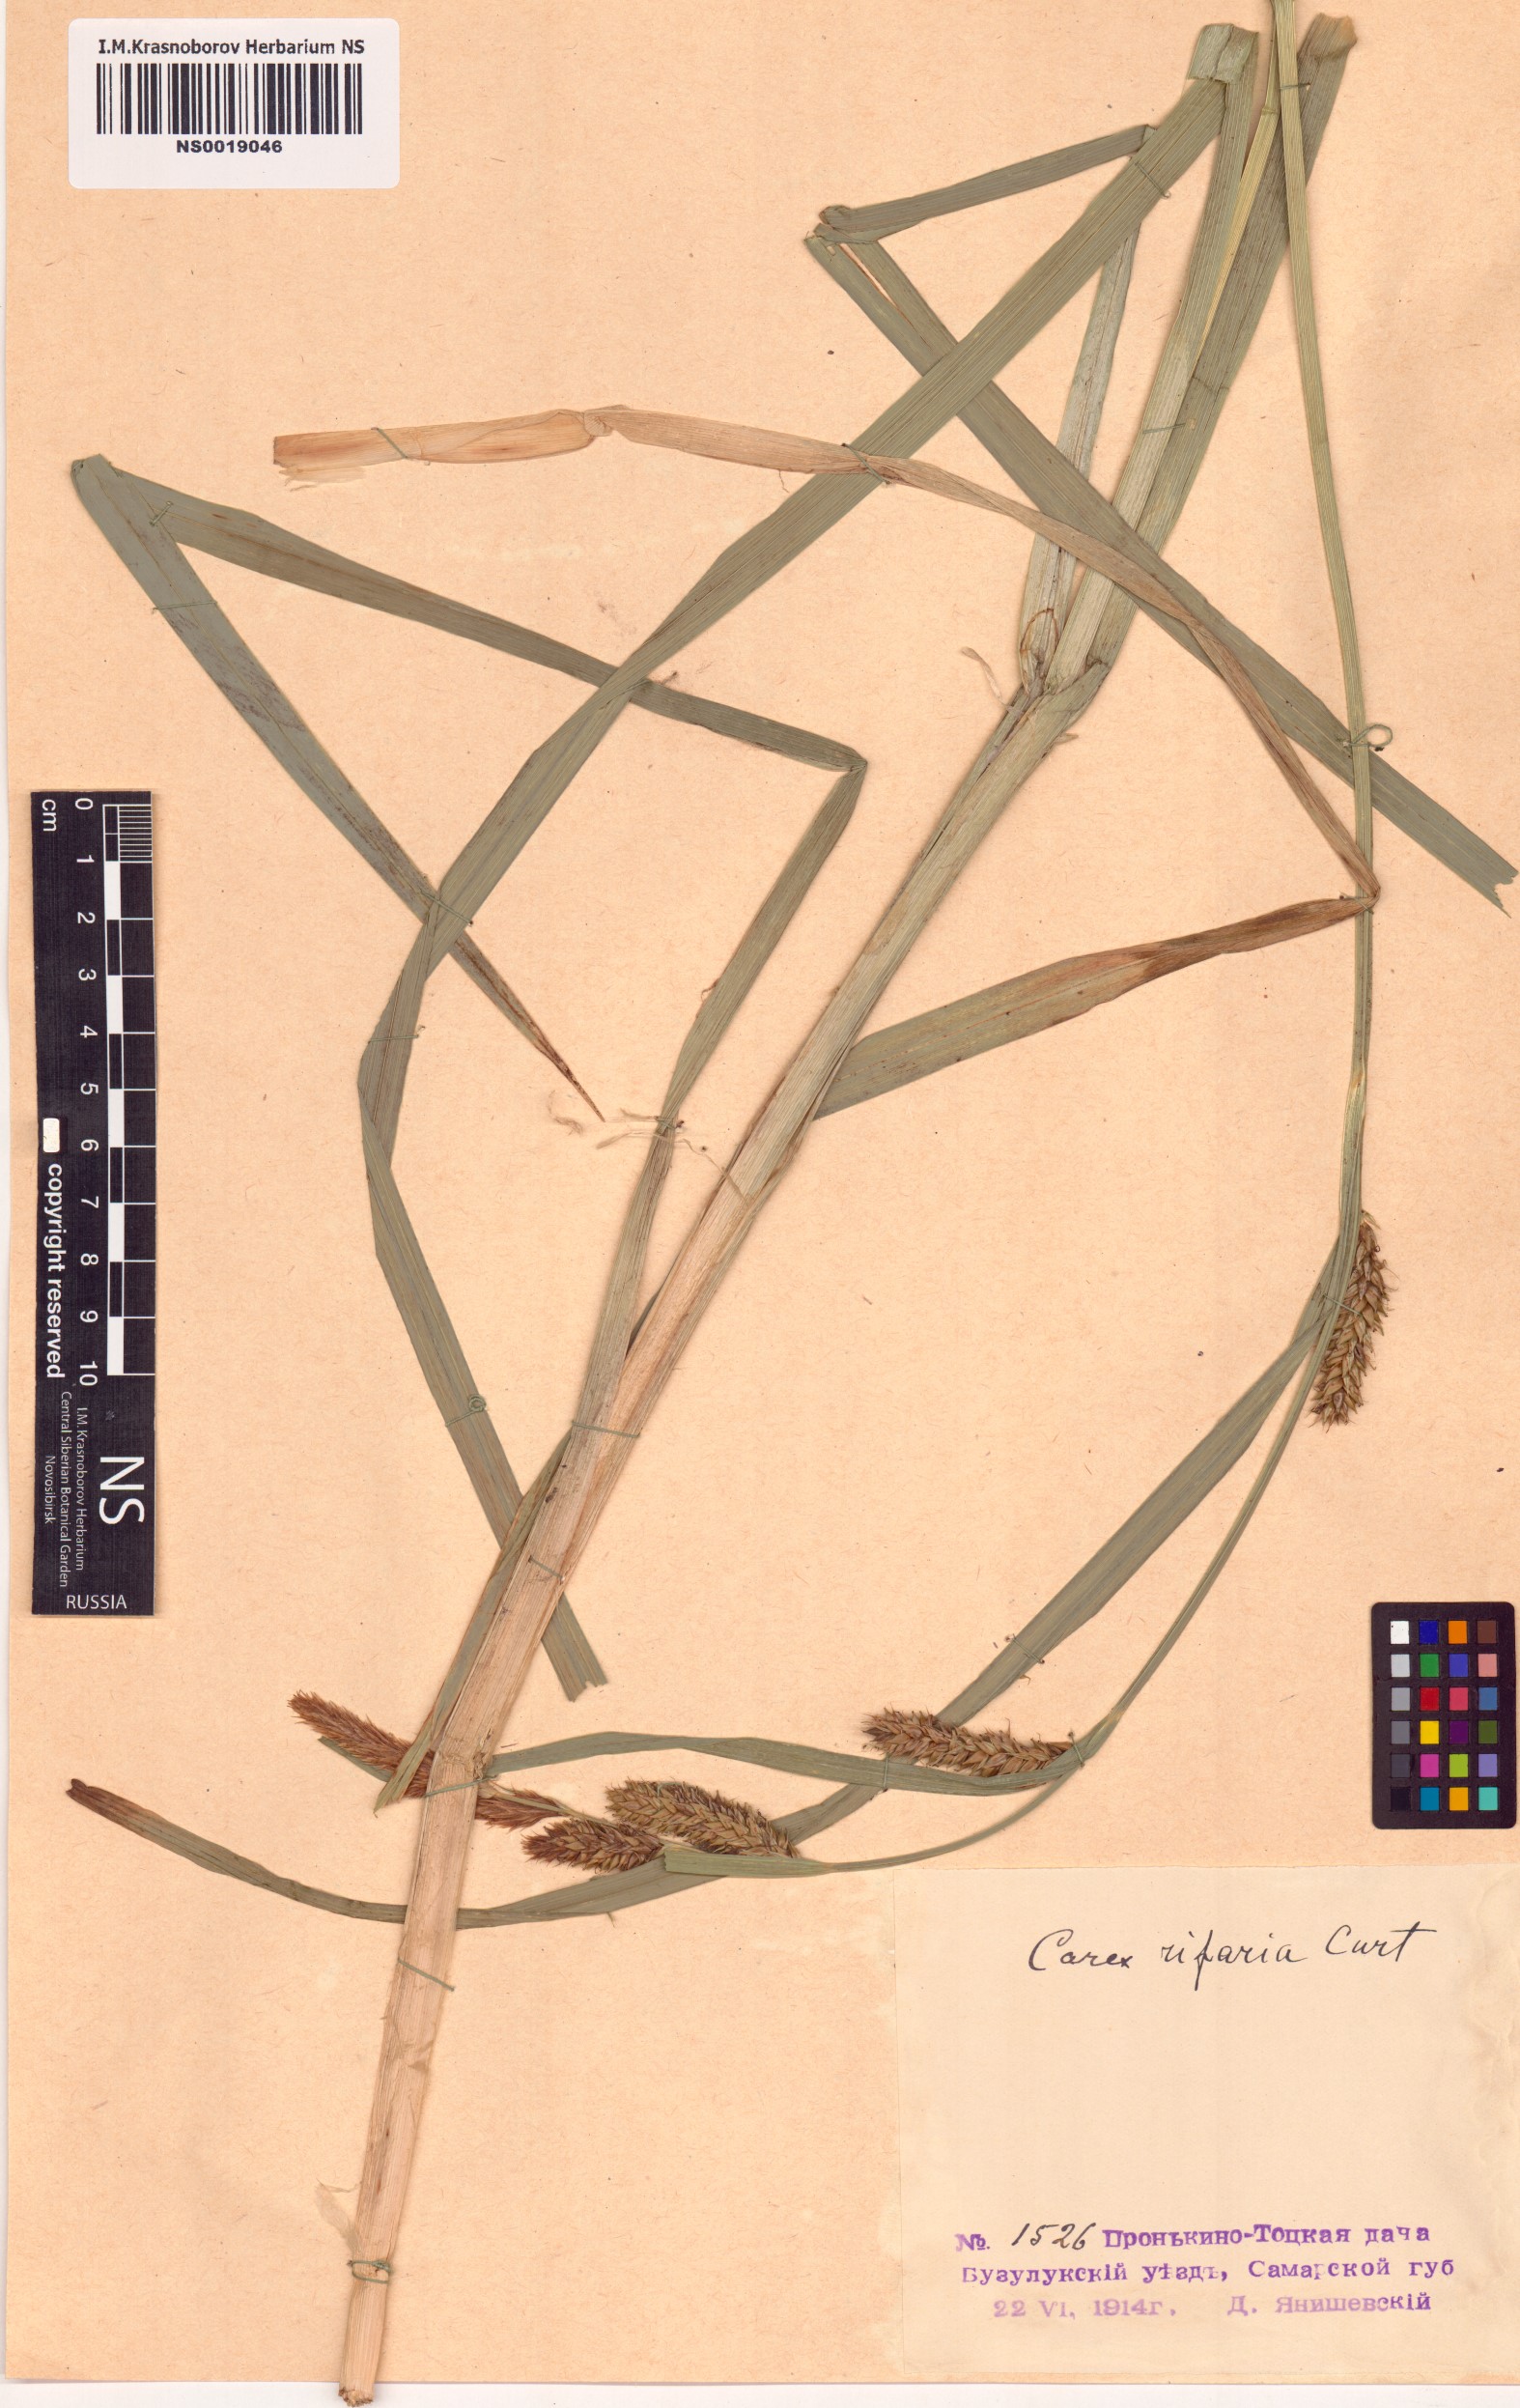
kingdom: Plantae
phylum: Tracheophyta
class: Liliopsida
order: Poales
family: Cyperaceae
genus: Carex
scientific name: Carex riparia
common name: Greater pond-sedge
